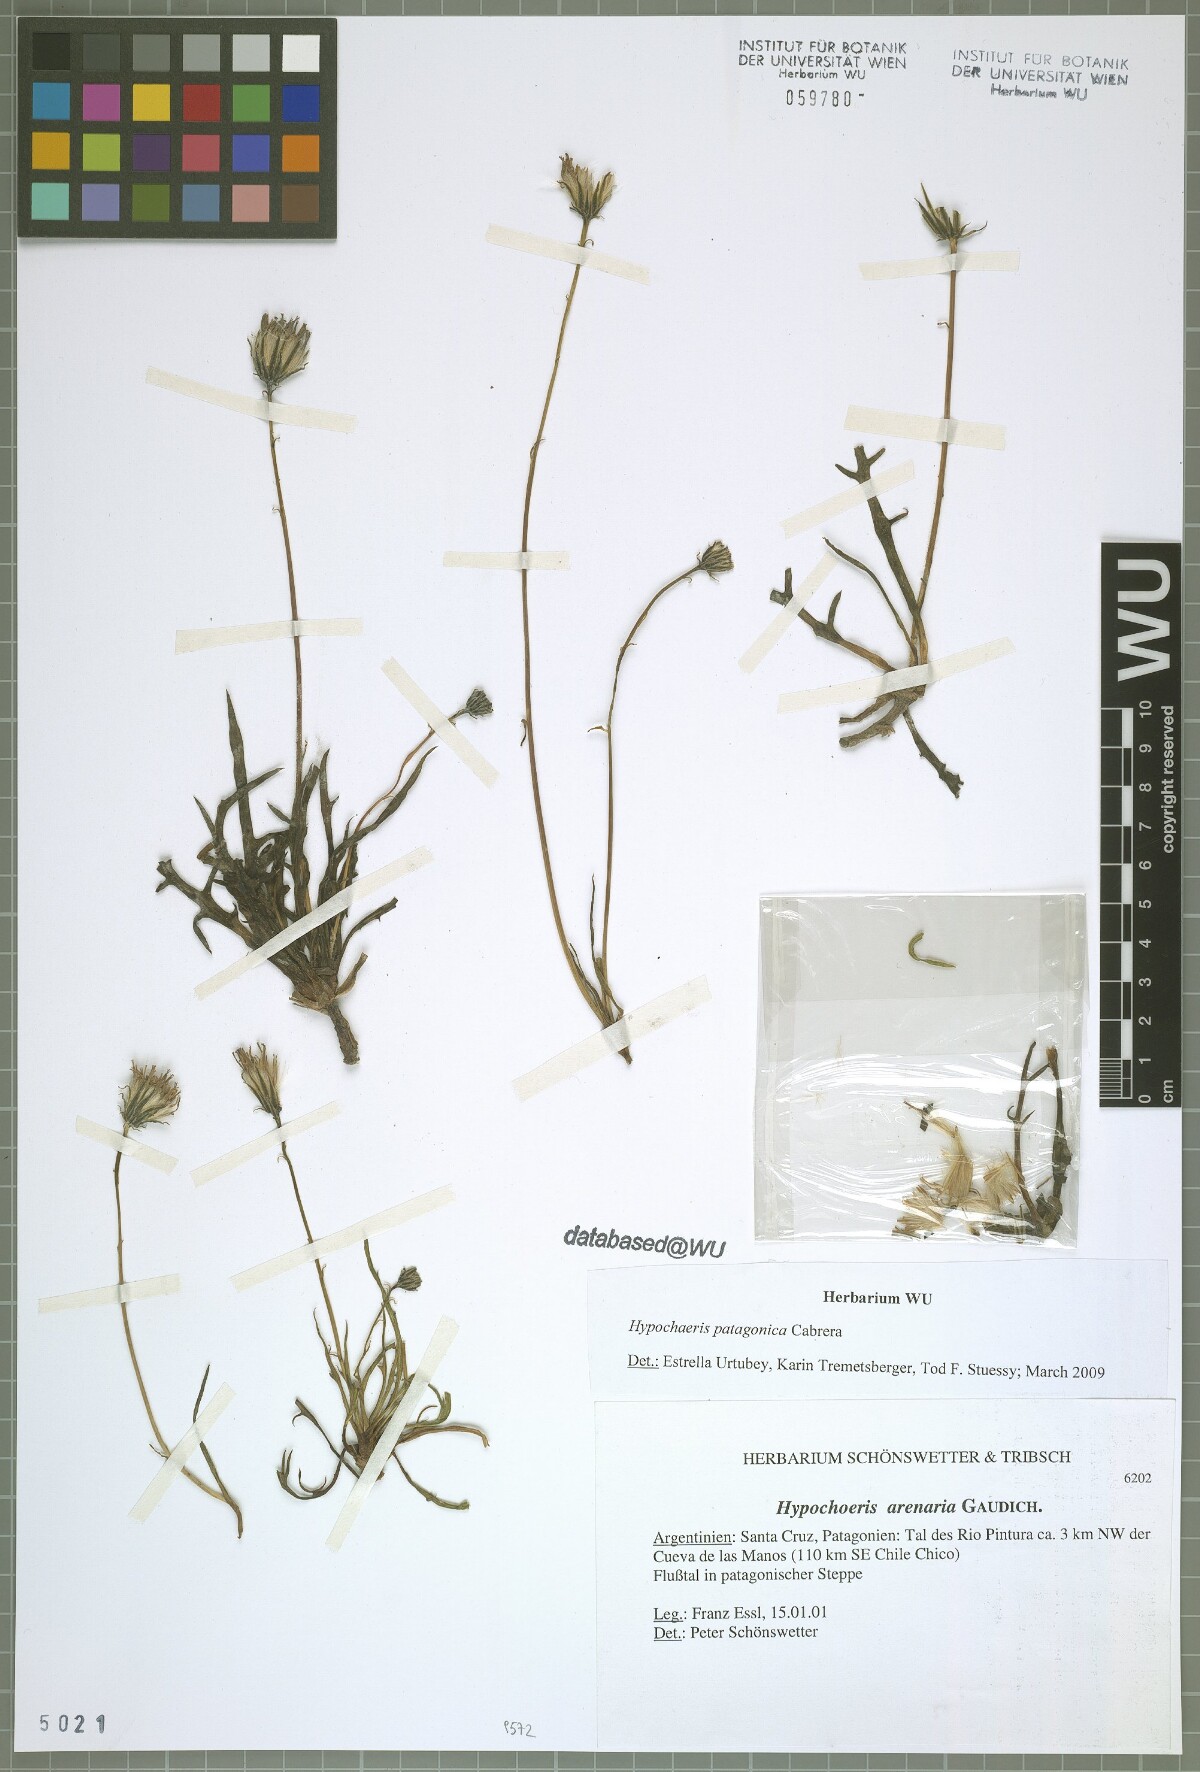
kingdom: Plantae
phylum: Tracheophyta
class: Magnoliopsida
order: Asterales
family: Asteraceae
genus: Hypochaeris
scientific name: Hypochaeris patagonica
